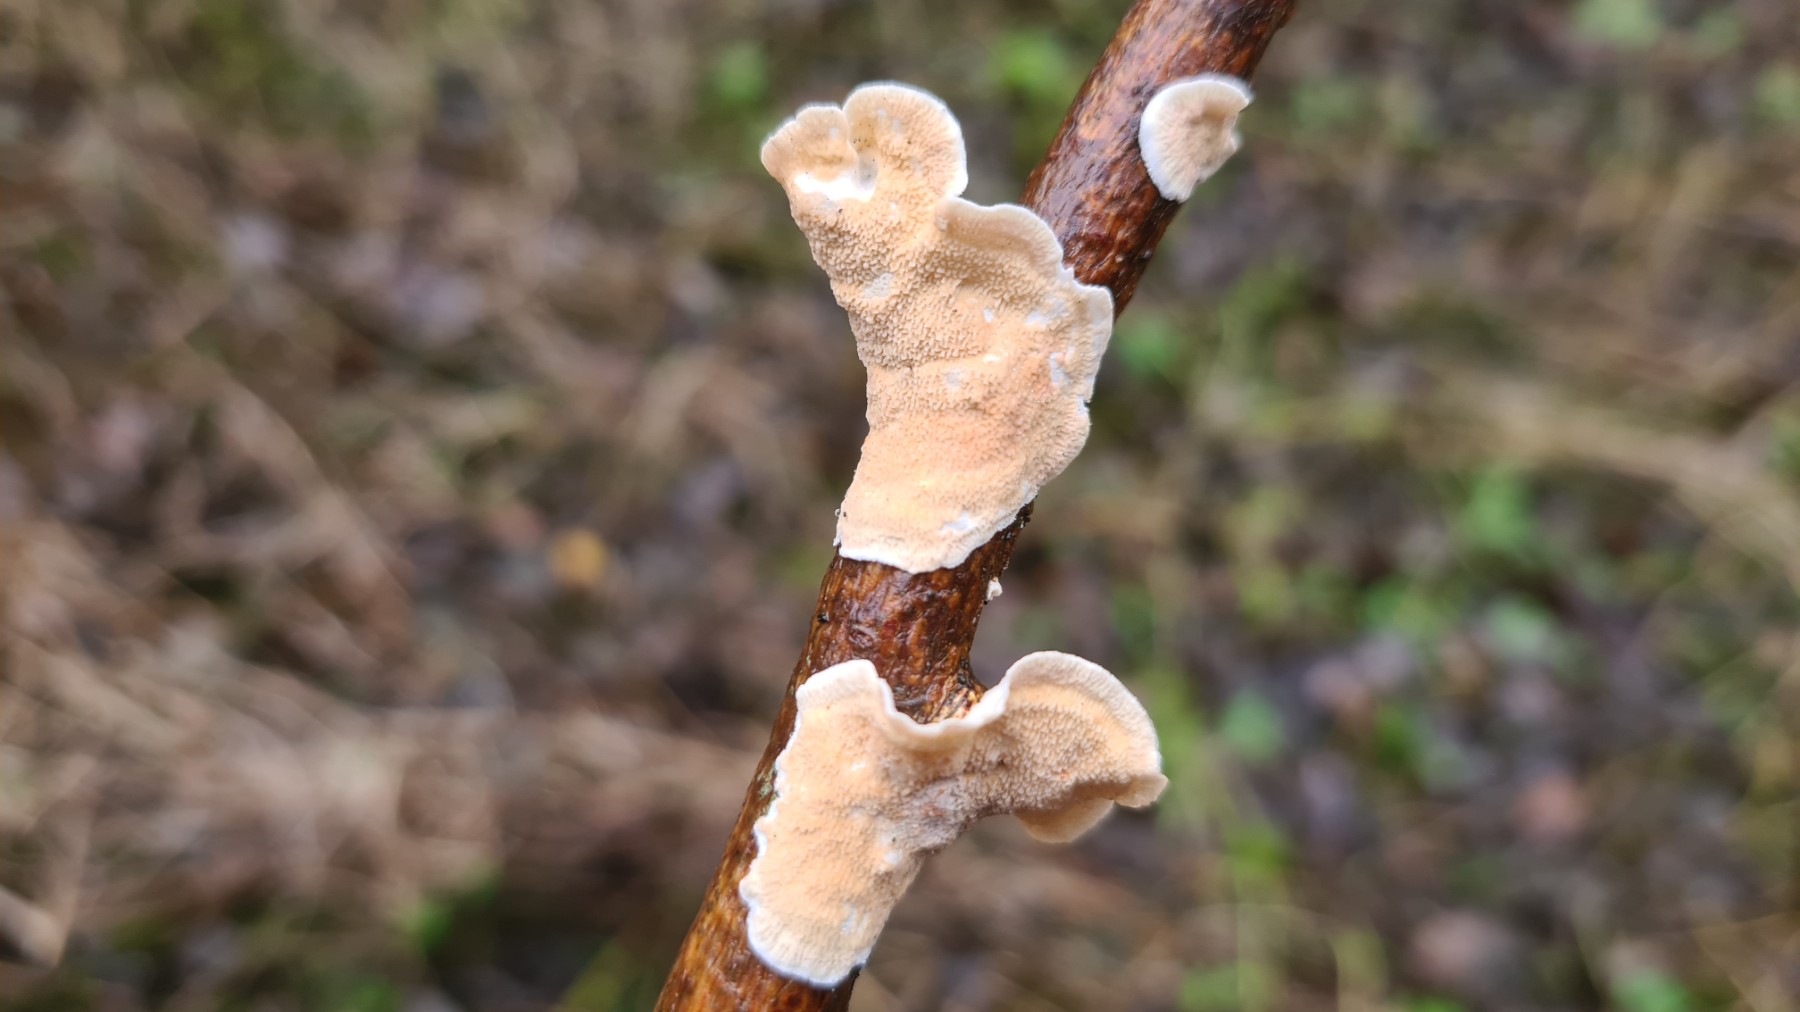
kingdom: Fungi
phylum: Basidiomycota
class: Agaricomycetes
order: Polyporales
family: Irpicaceae
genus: Byssomerulius
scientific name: Byssomerulius corium
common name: læder-åresvamp
